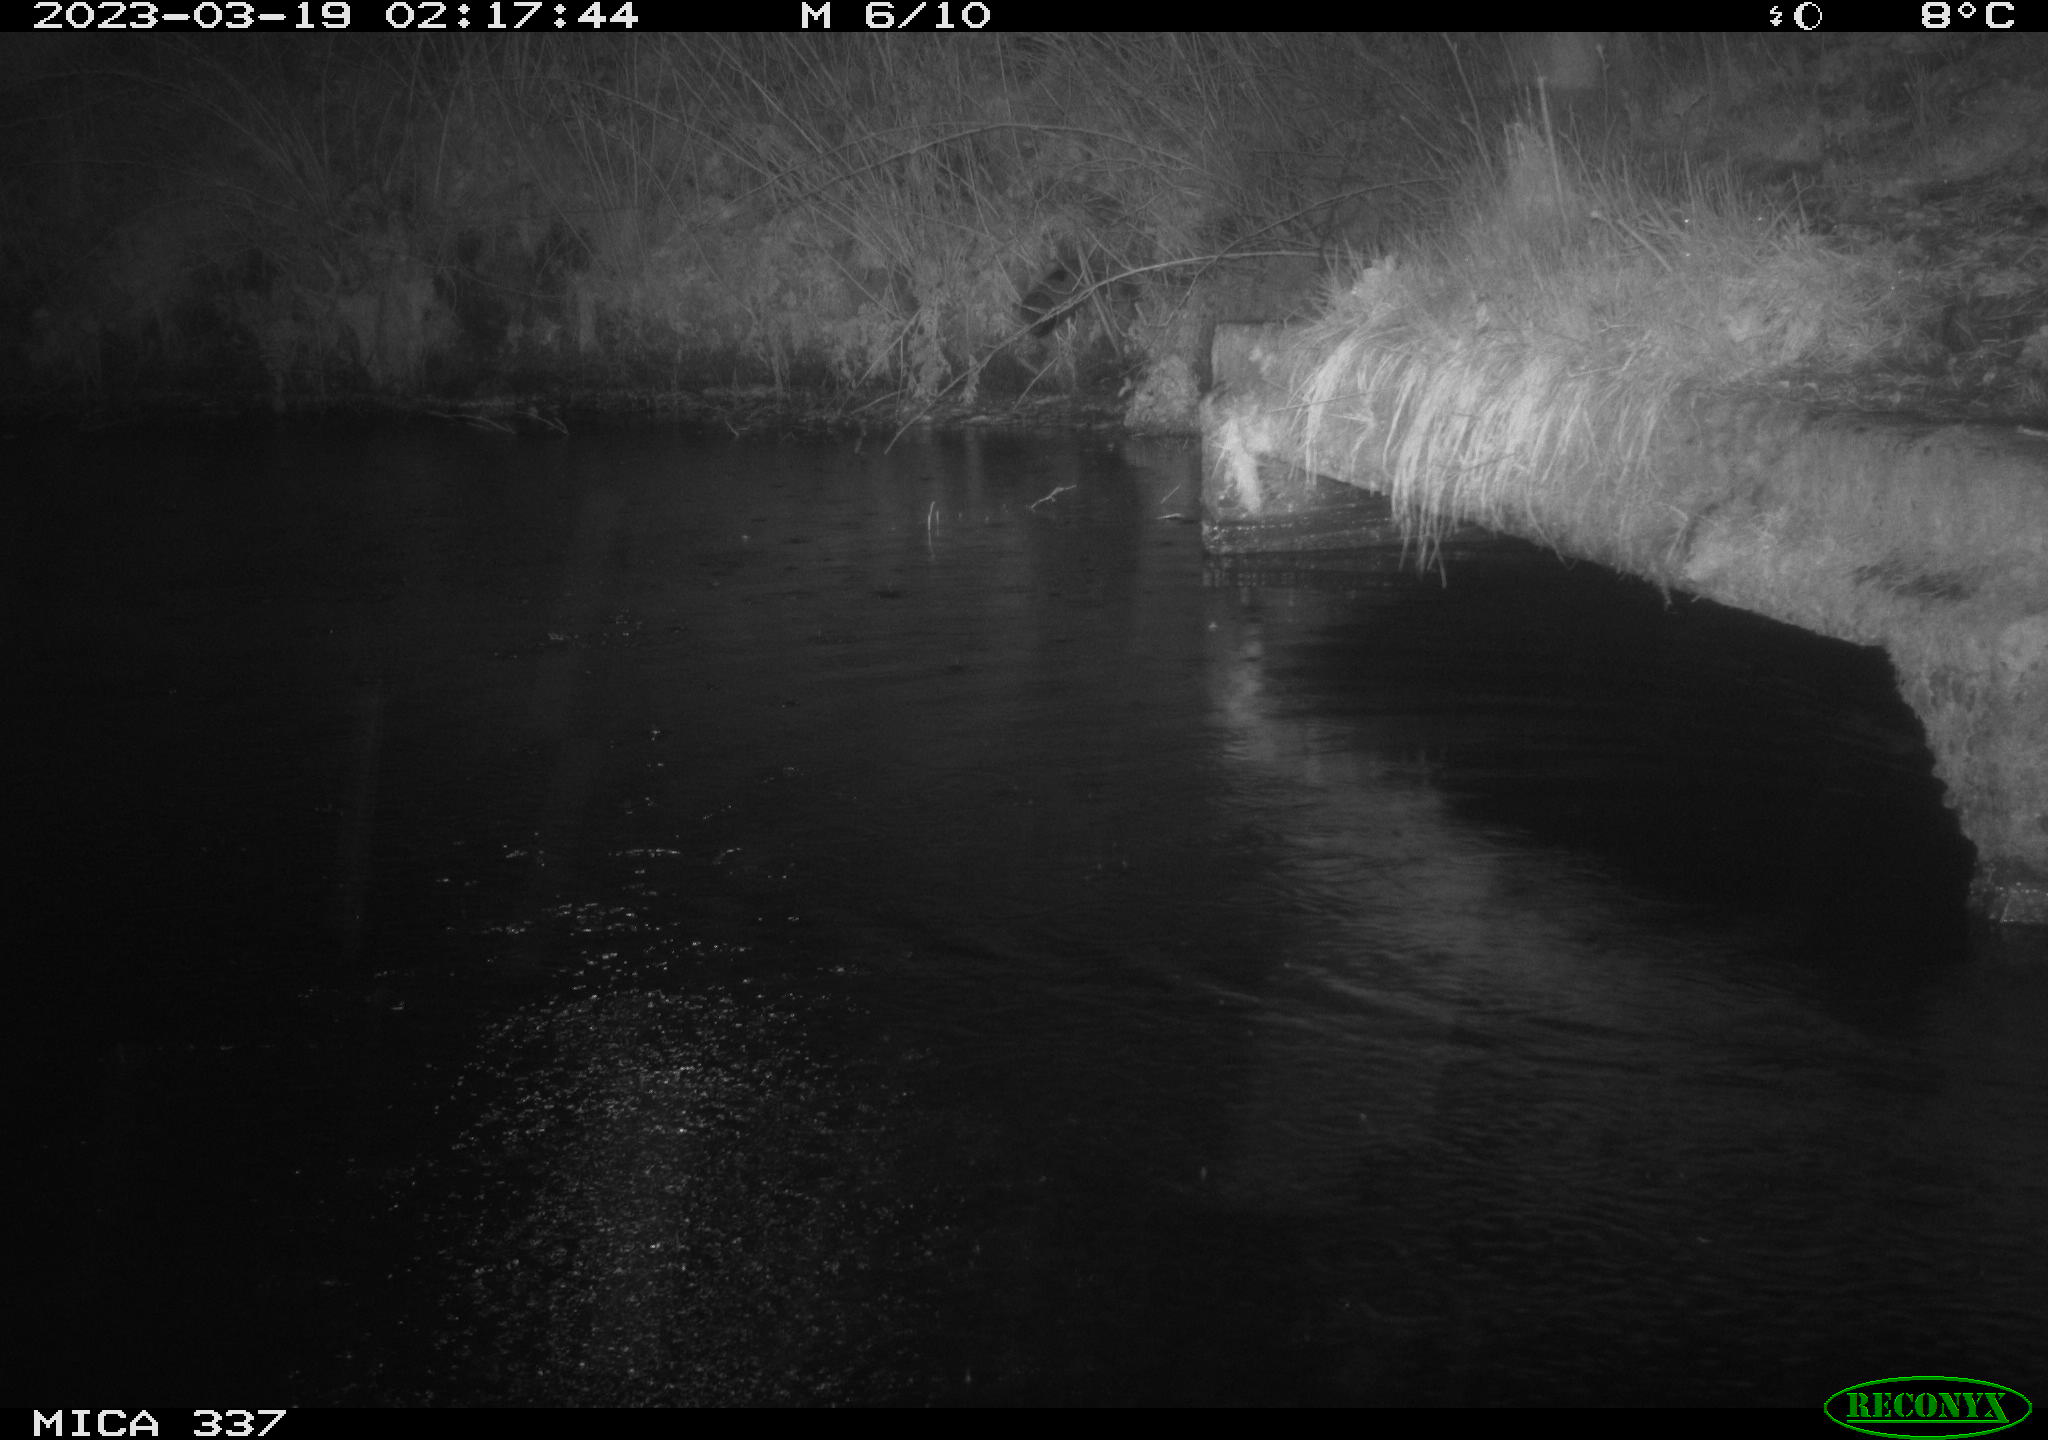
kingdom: Animalia
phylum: Chordata
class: Mammalia
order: Rodentia
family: Muridae
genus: Rattus
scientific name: Rattus norvegicus
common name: Brown rat
